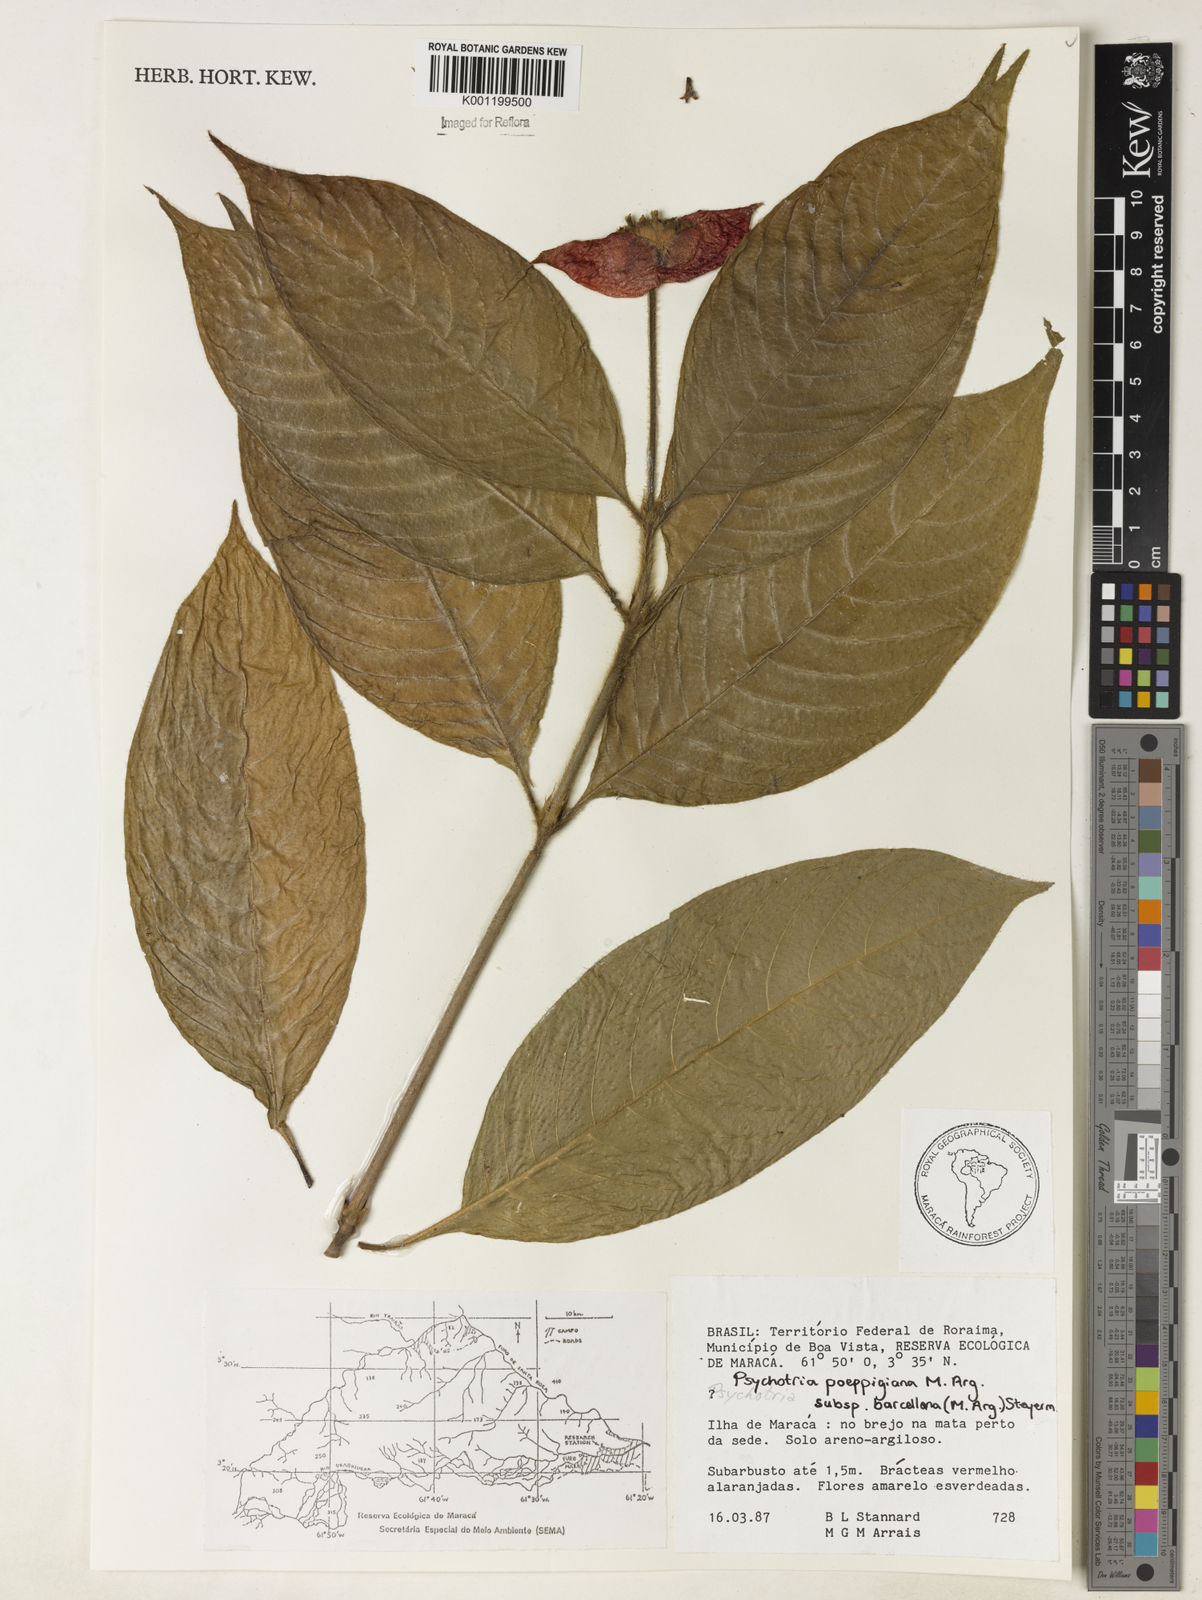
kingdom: Plantae
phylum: Tracheophyta
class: Magnoliopsida
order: Gentianales
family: Rubiaceae
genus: Psychotria
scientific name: Psychotria
